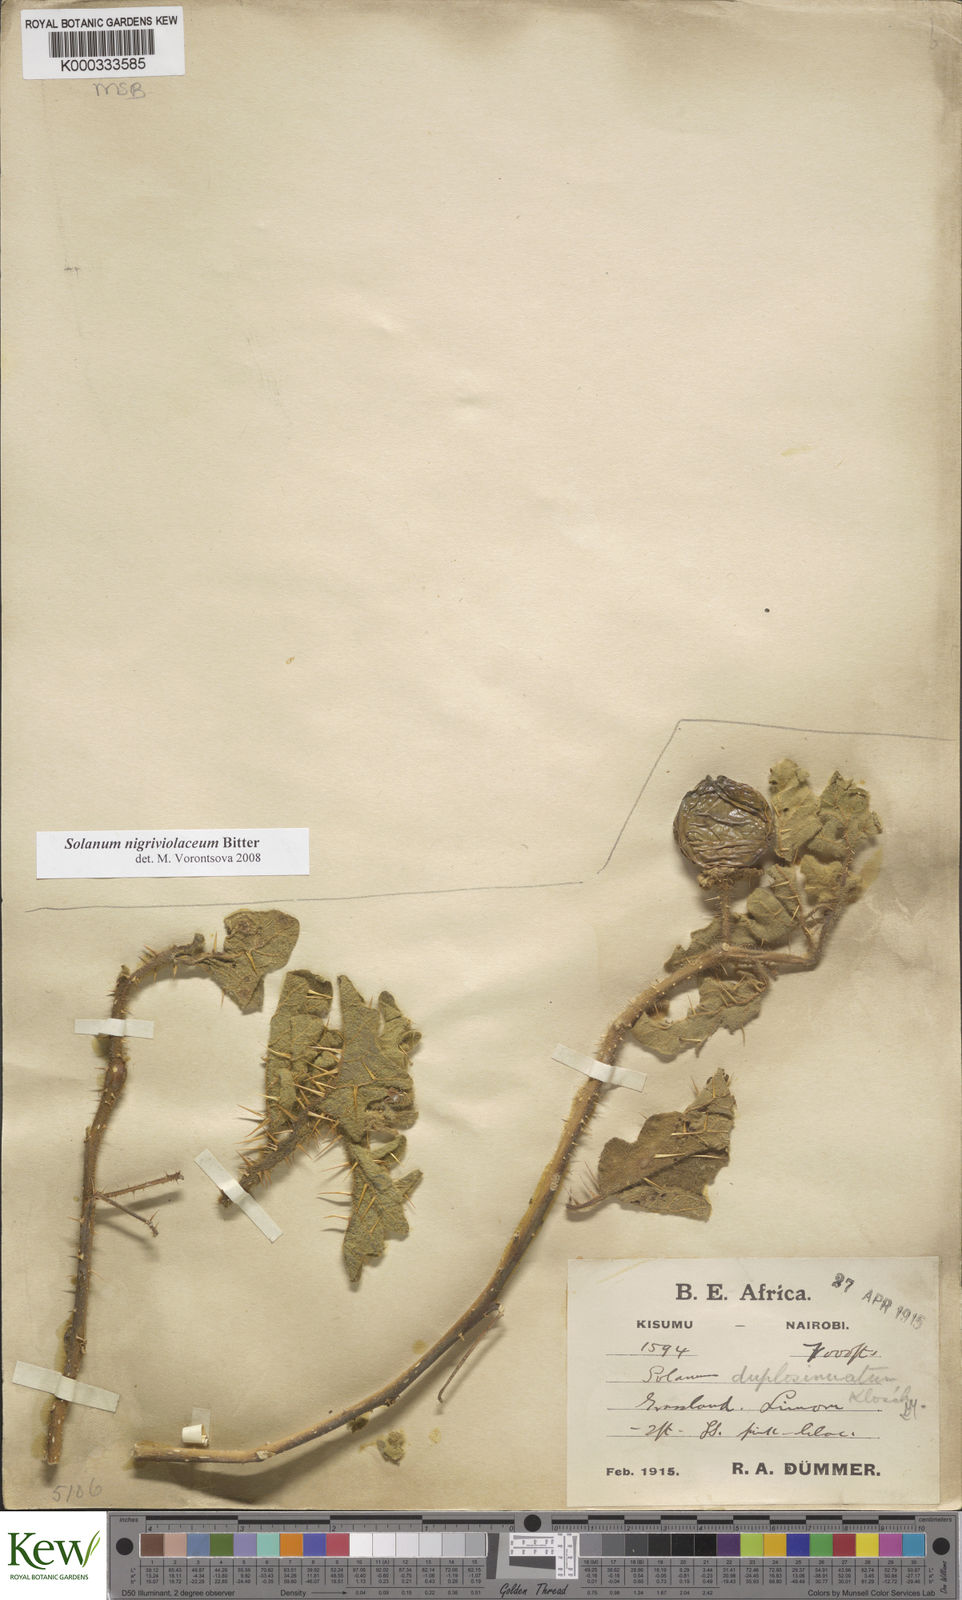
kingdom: Plantae
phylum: Tracheophyta
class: Magnoliopsida
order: Solanales
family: Solanaceae
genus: Solanum
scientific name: Solanum nigriviolaceum
